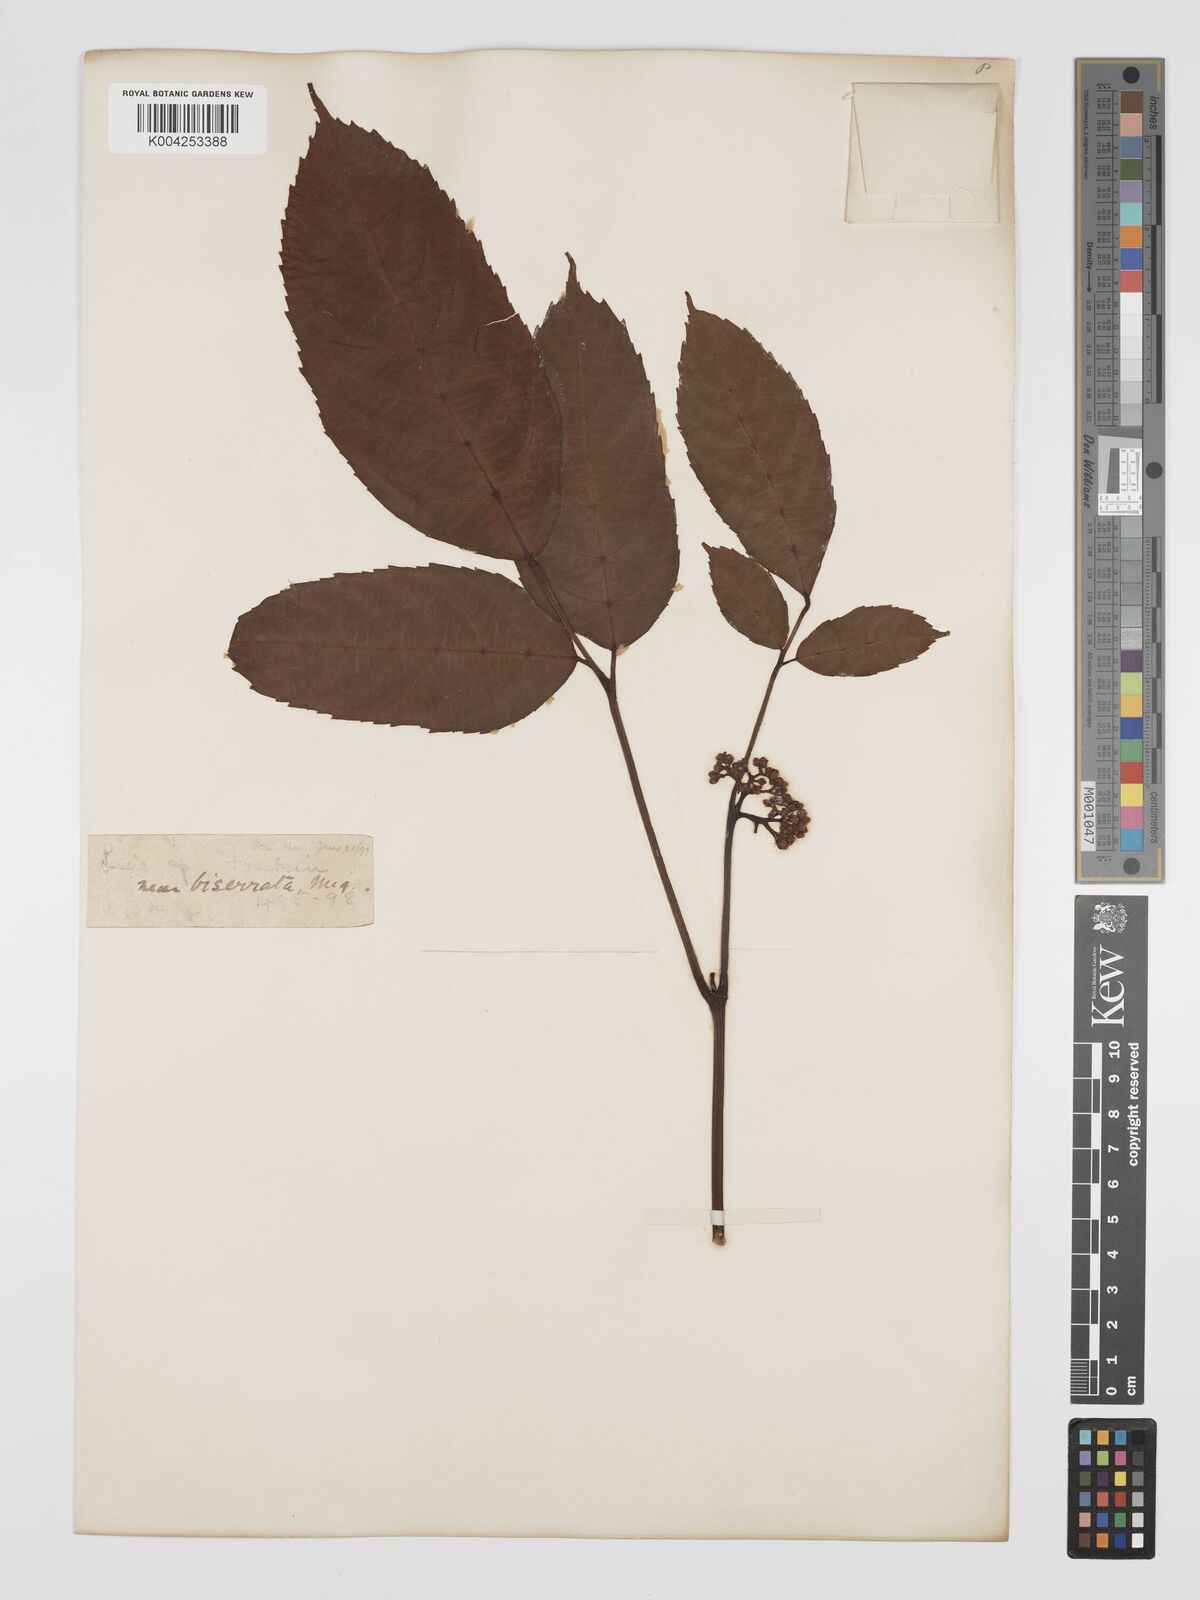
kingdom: Plantae
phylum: Tracheophyta
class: Magnoliopsida
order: Vitales
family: Vitaceae
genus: Leea
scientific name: Leea
